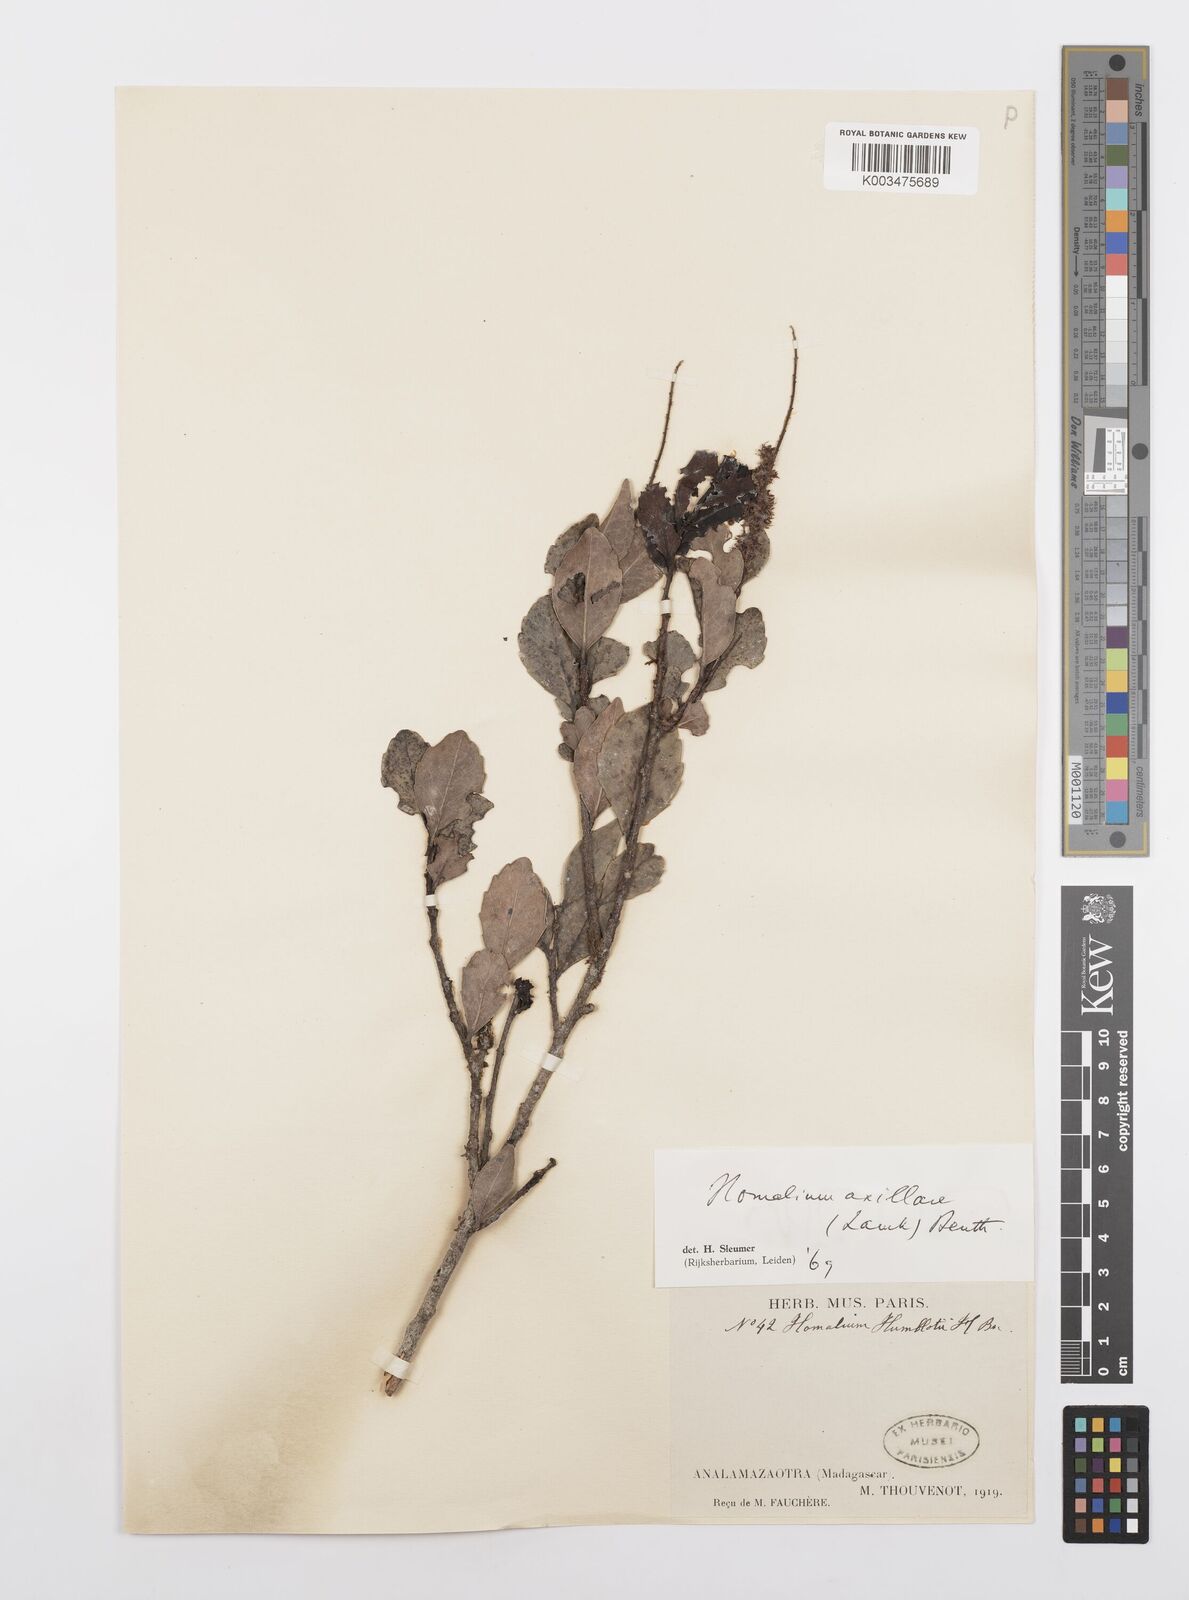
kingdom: Plantae
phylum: Tracheophyta
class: Magnoliopsida
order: Malpighiales
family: Salicaceae
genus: Homalium
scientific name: Homalium axillare
